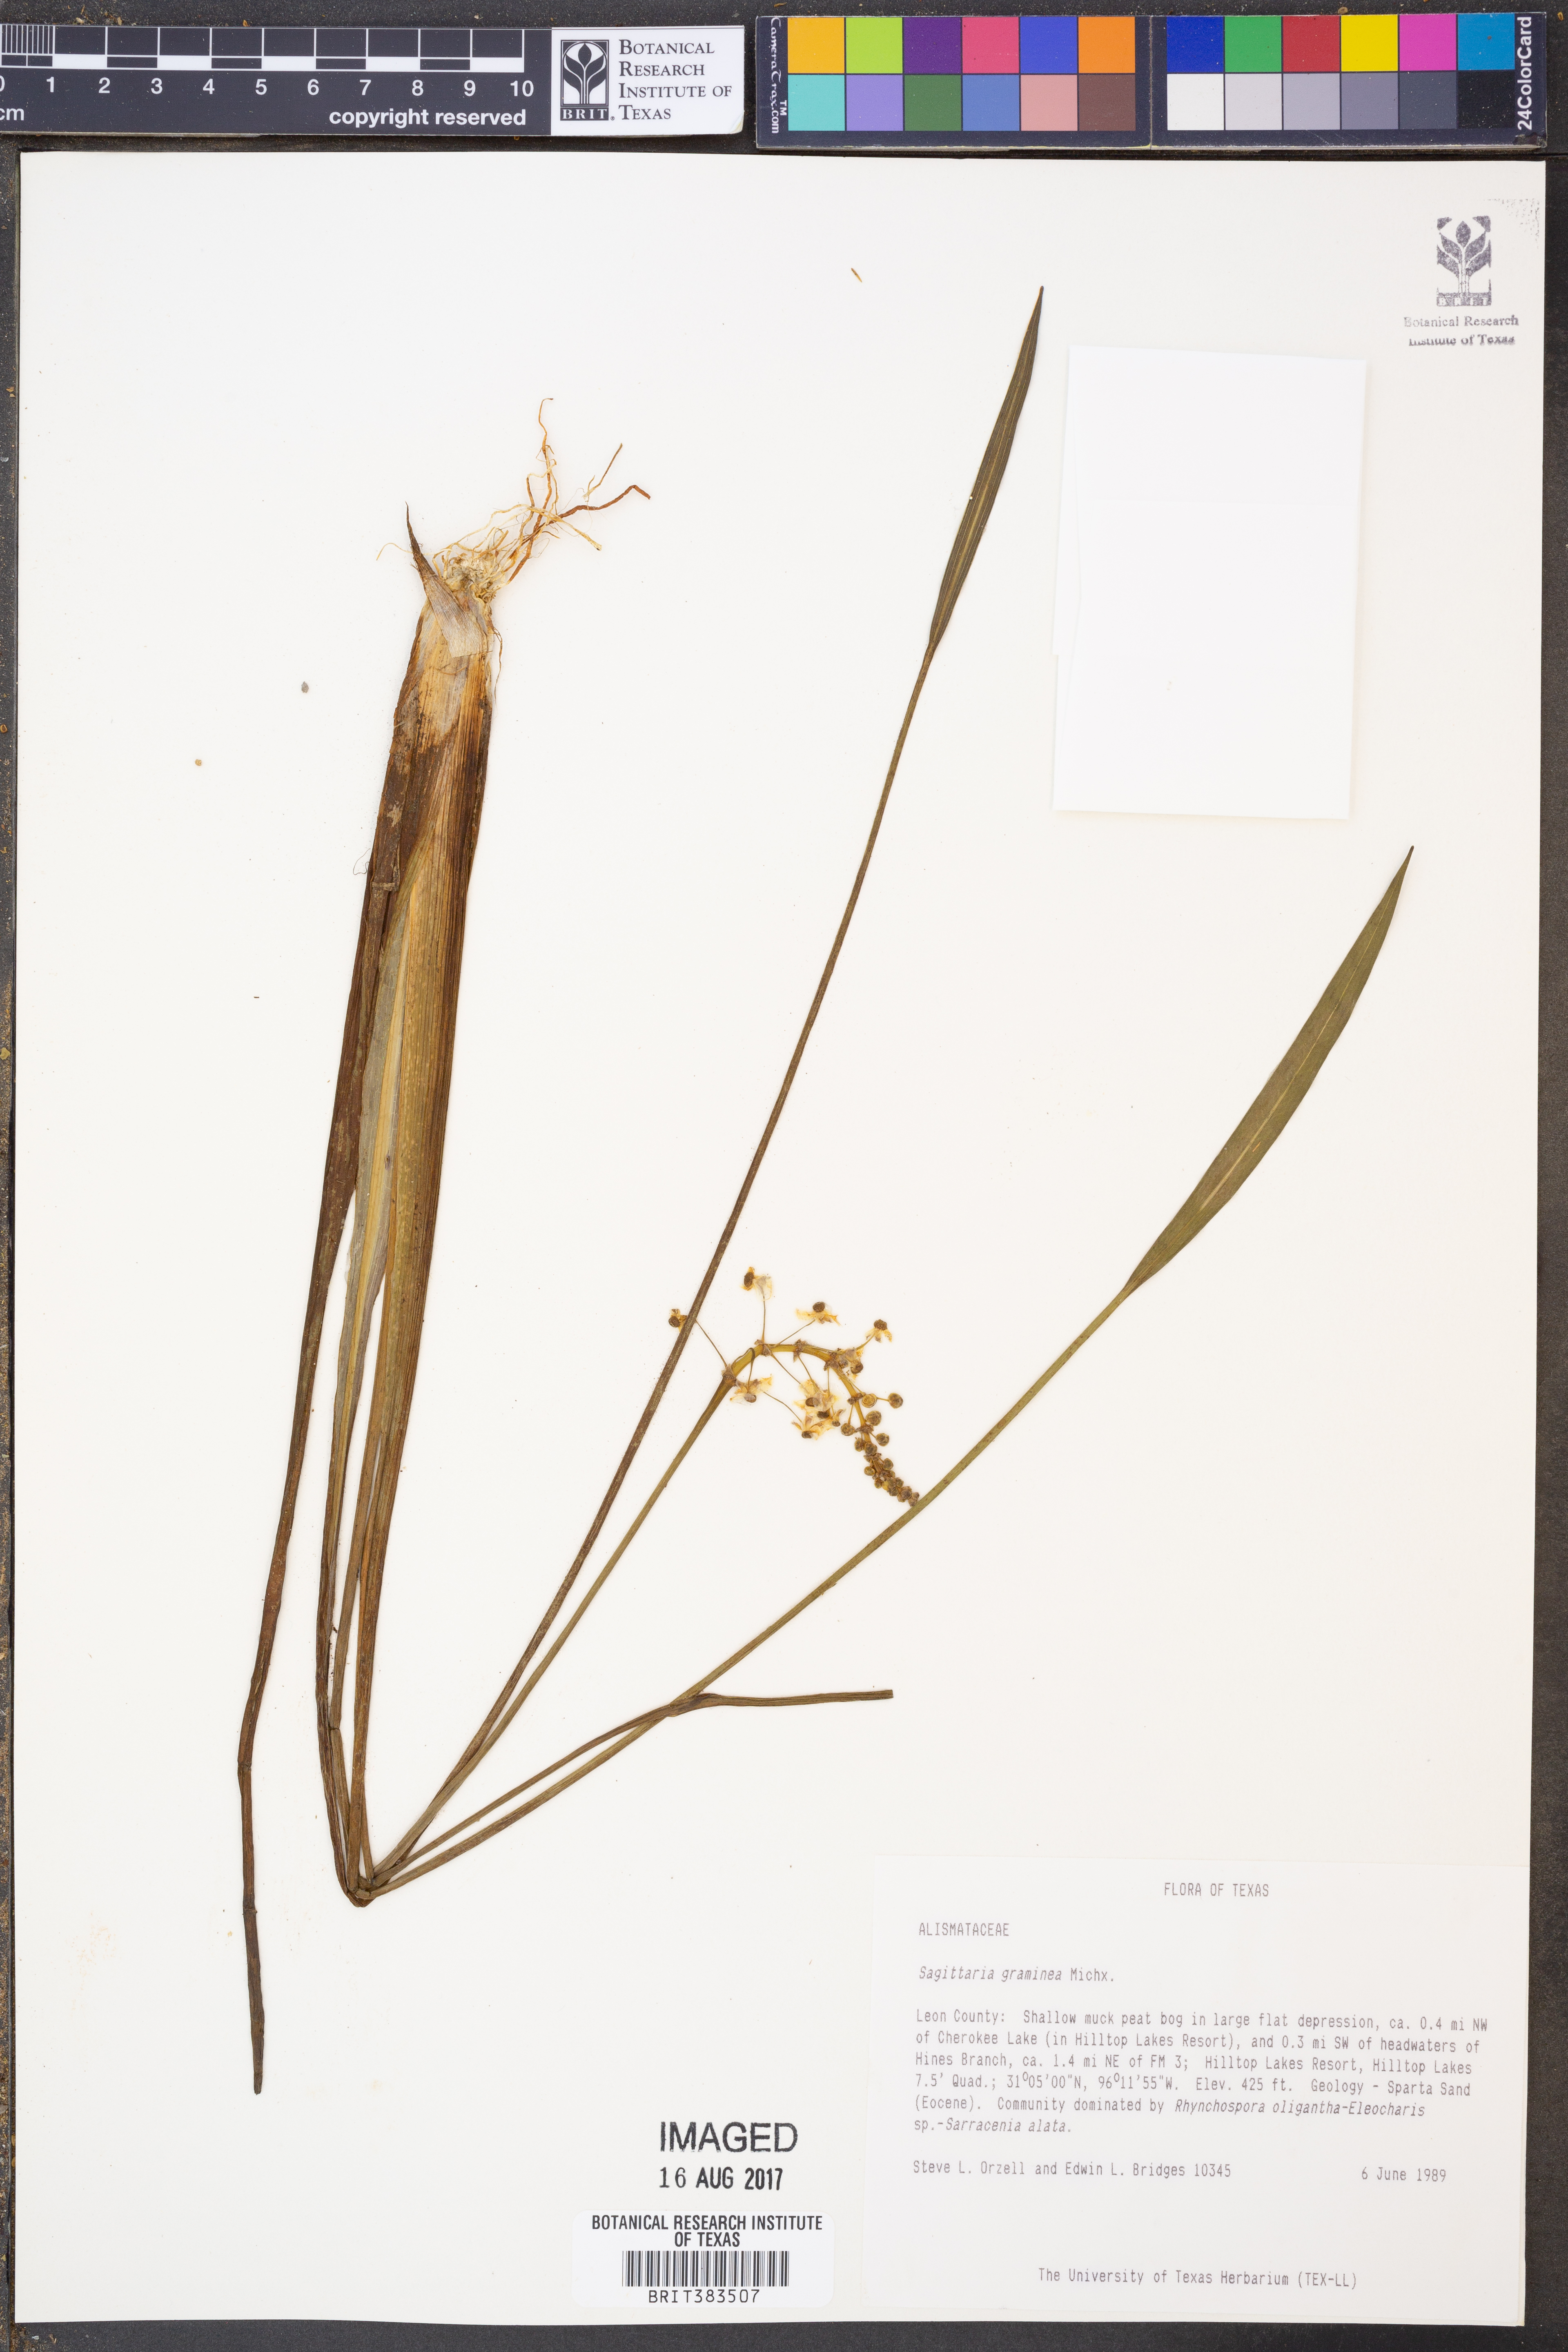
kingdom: Plantae
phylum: Tracheophyta
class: Liliopsida
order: Alismatales
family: Alismataceae
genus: Sagittaria
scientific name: Sagittaria graminea
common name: Grass-leaved arrowhead
